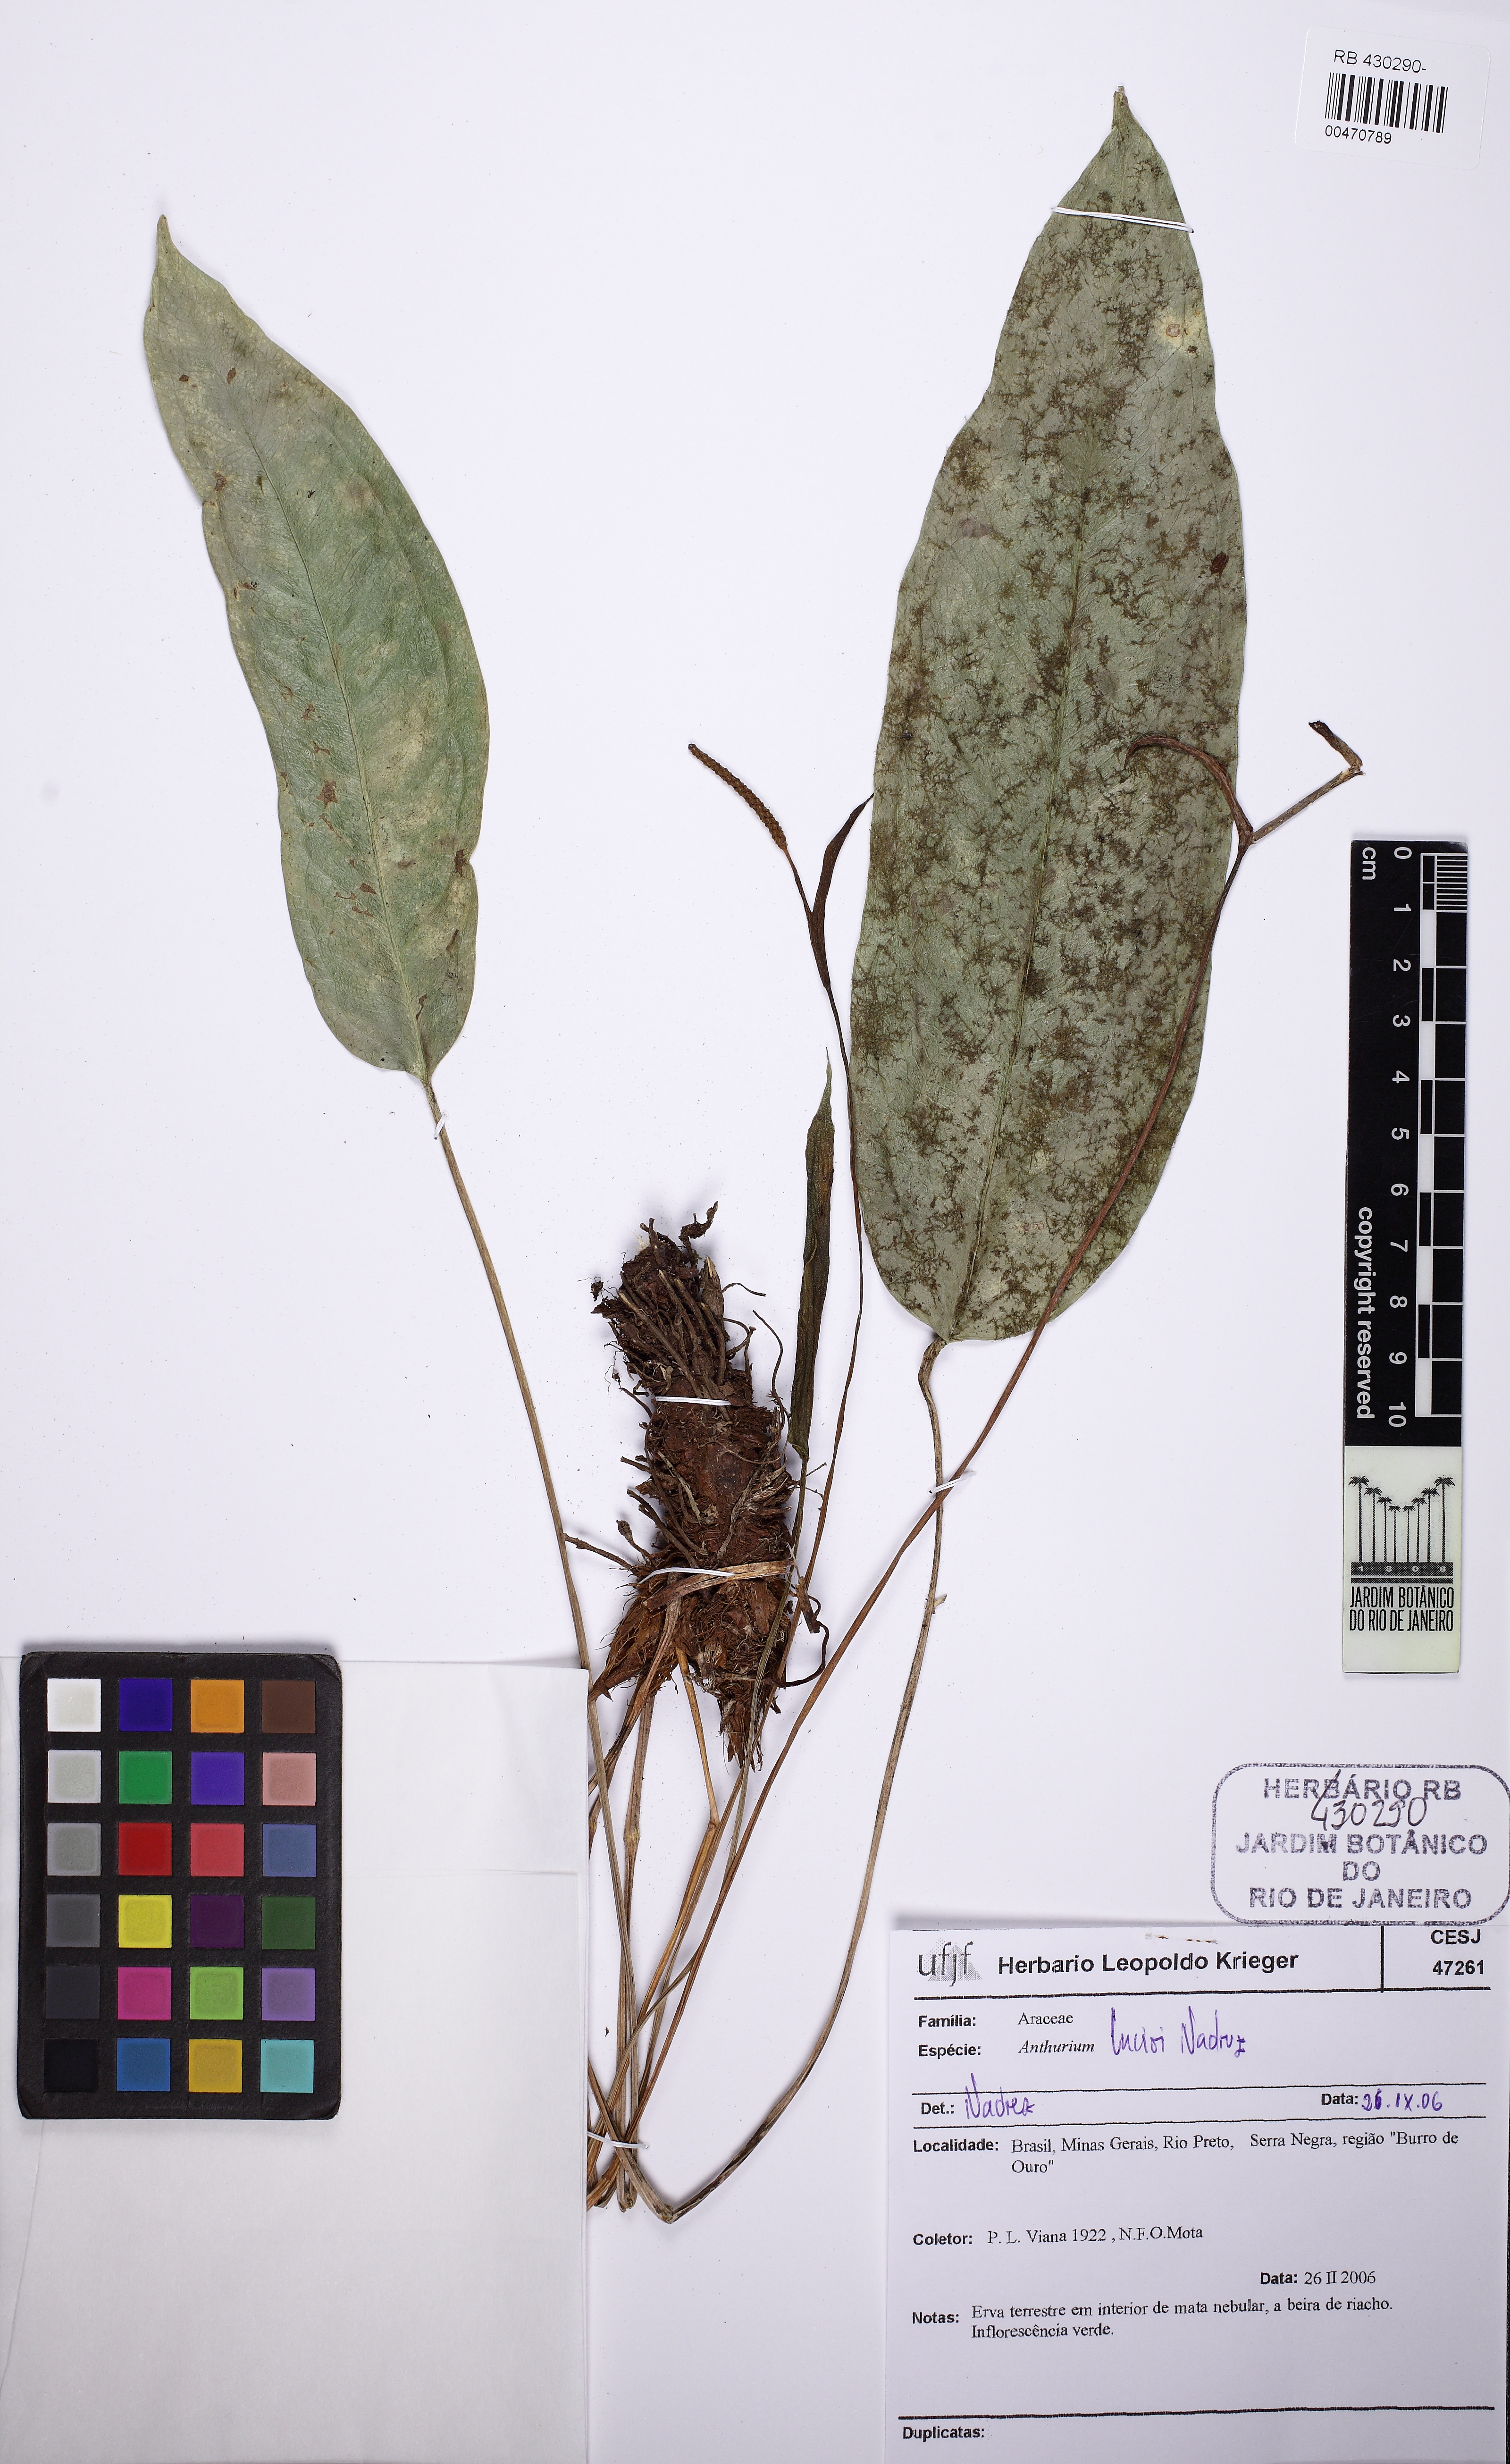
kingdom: Plantae
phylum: Tracheophyta
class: Liliopsida
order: Alismatales
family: Araceae
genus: Anthurium
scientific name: Anthurium lucioi
